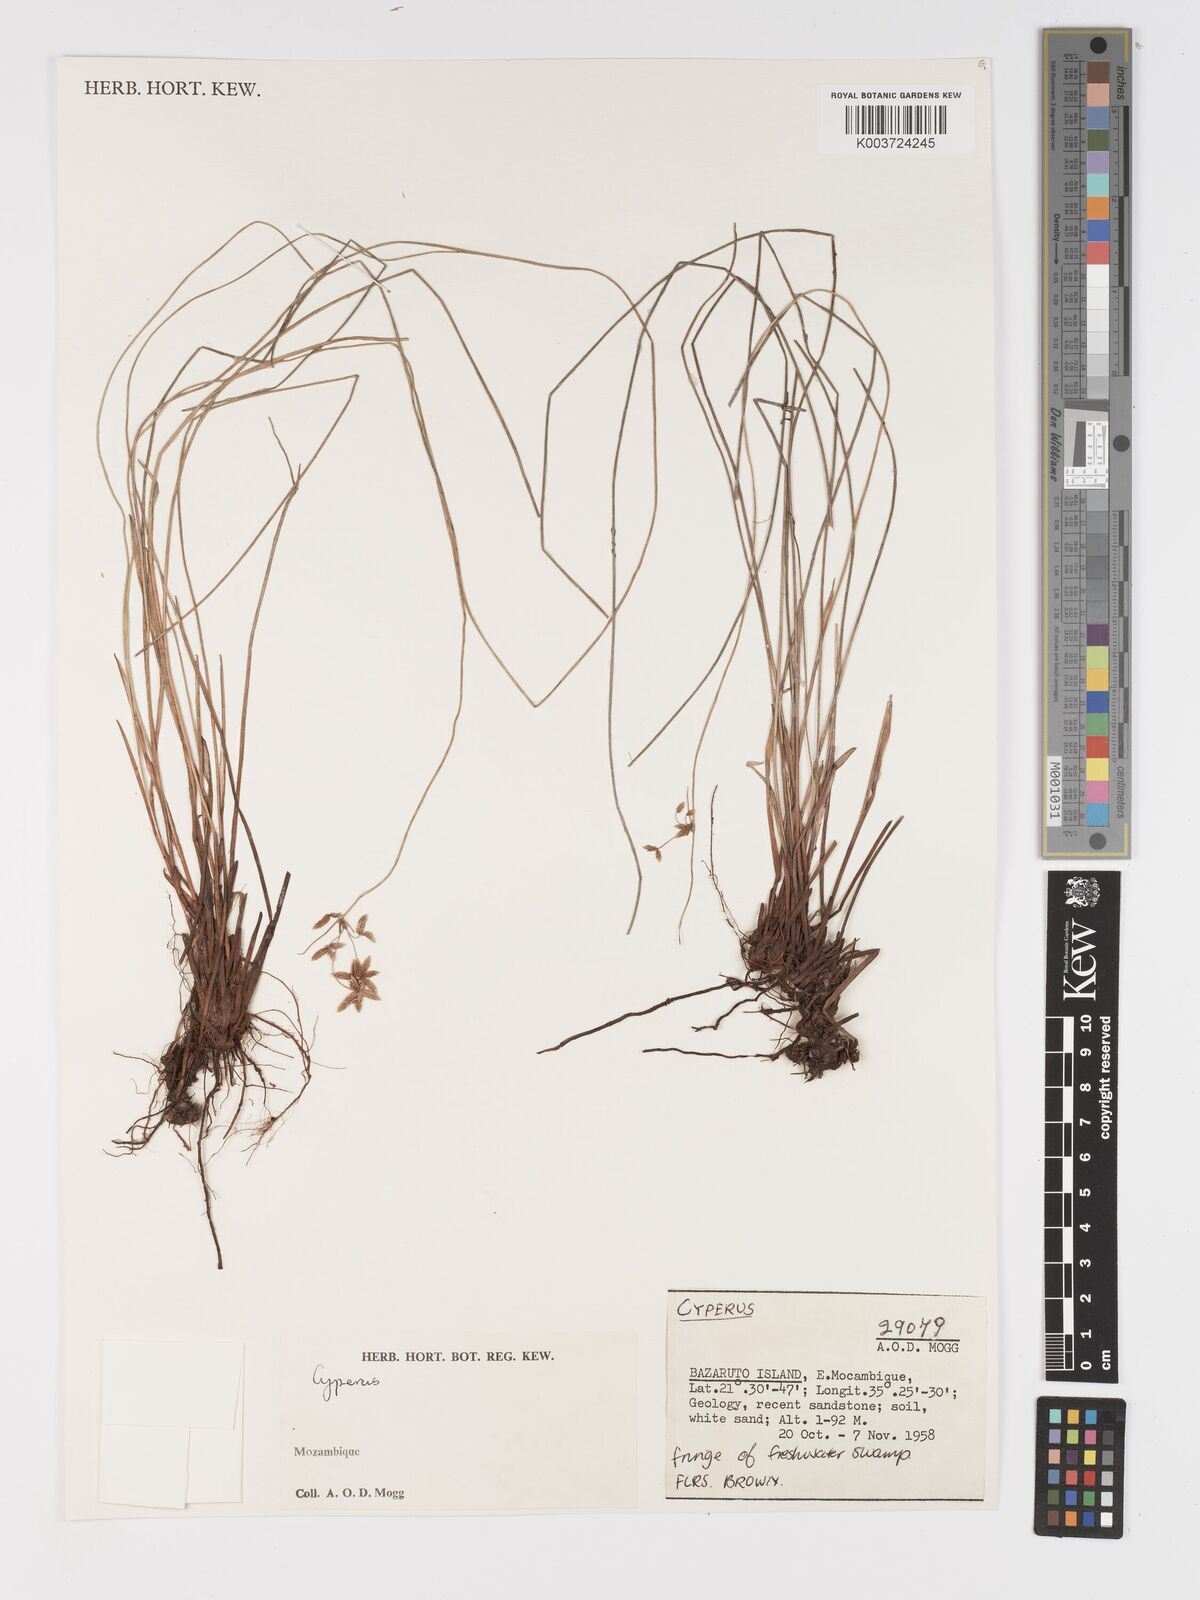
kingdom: Plantae
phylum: Tracheophyta
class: Liliopsida
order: Poales
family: Cyperaceae
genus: Cyperus
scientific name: Cyperus
